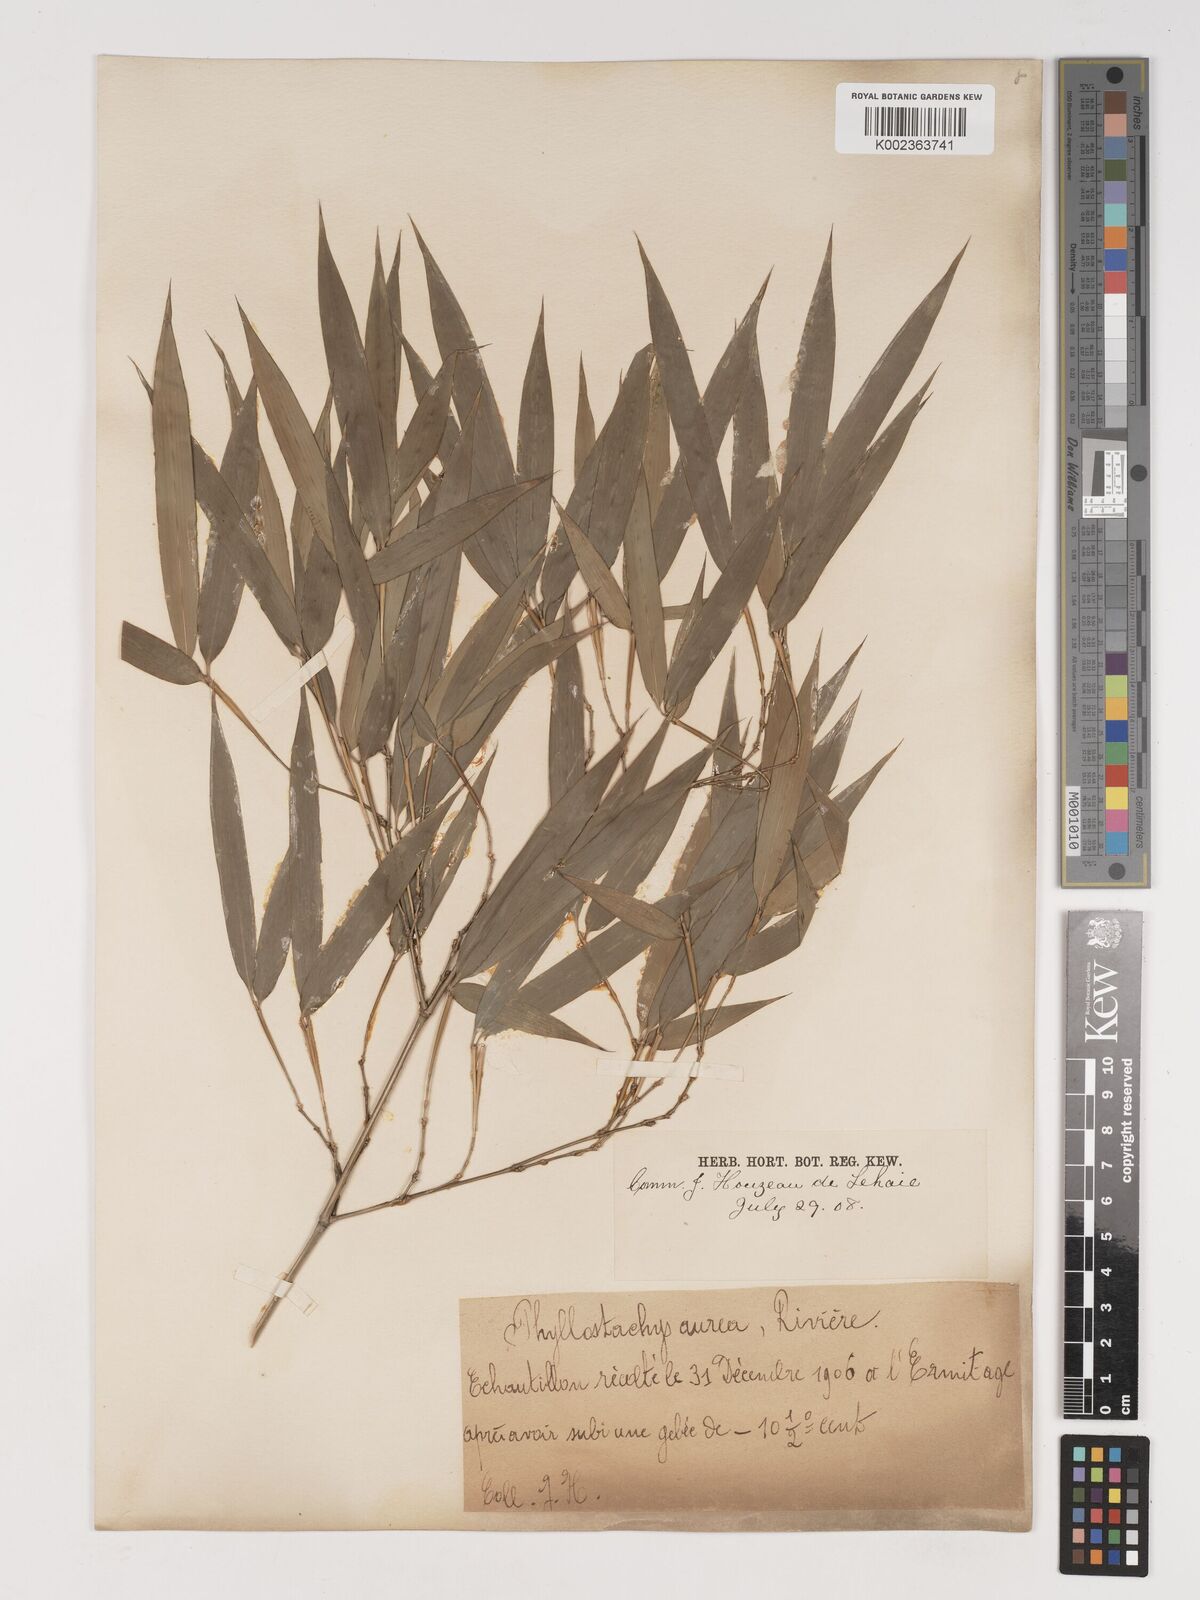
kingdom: Plantae
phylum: Tracheophyta
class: Liliopsida
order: Poales
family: Poaceae
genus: Phyllostachys
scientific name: Phyllostachys aurea
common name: Golden bamboo
